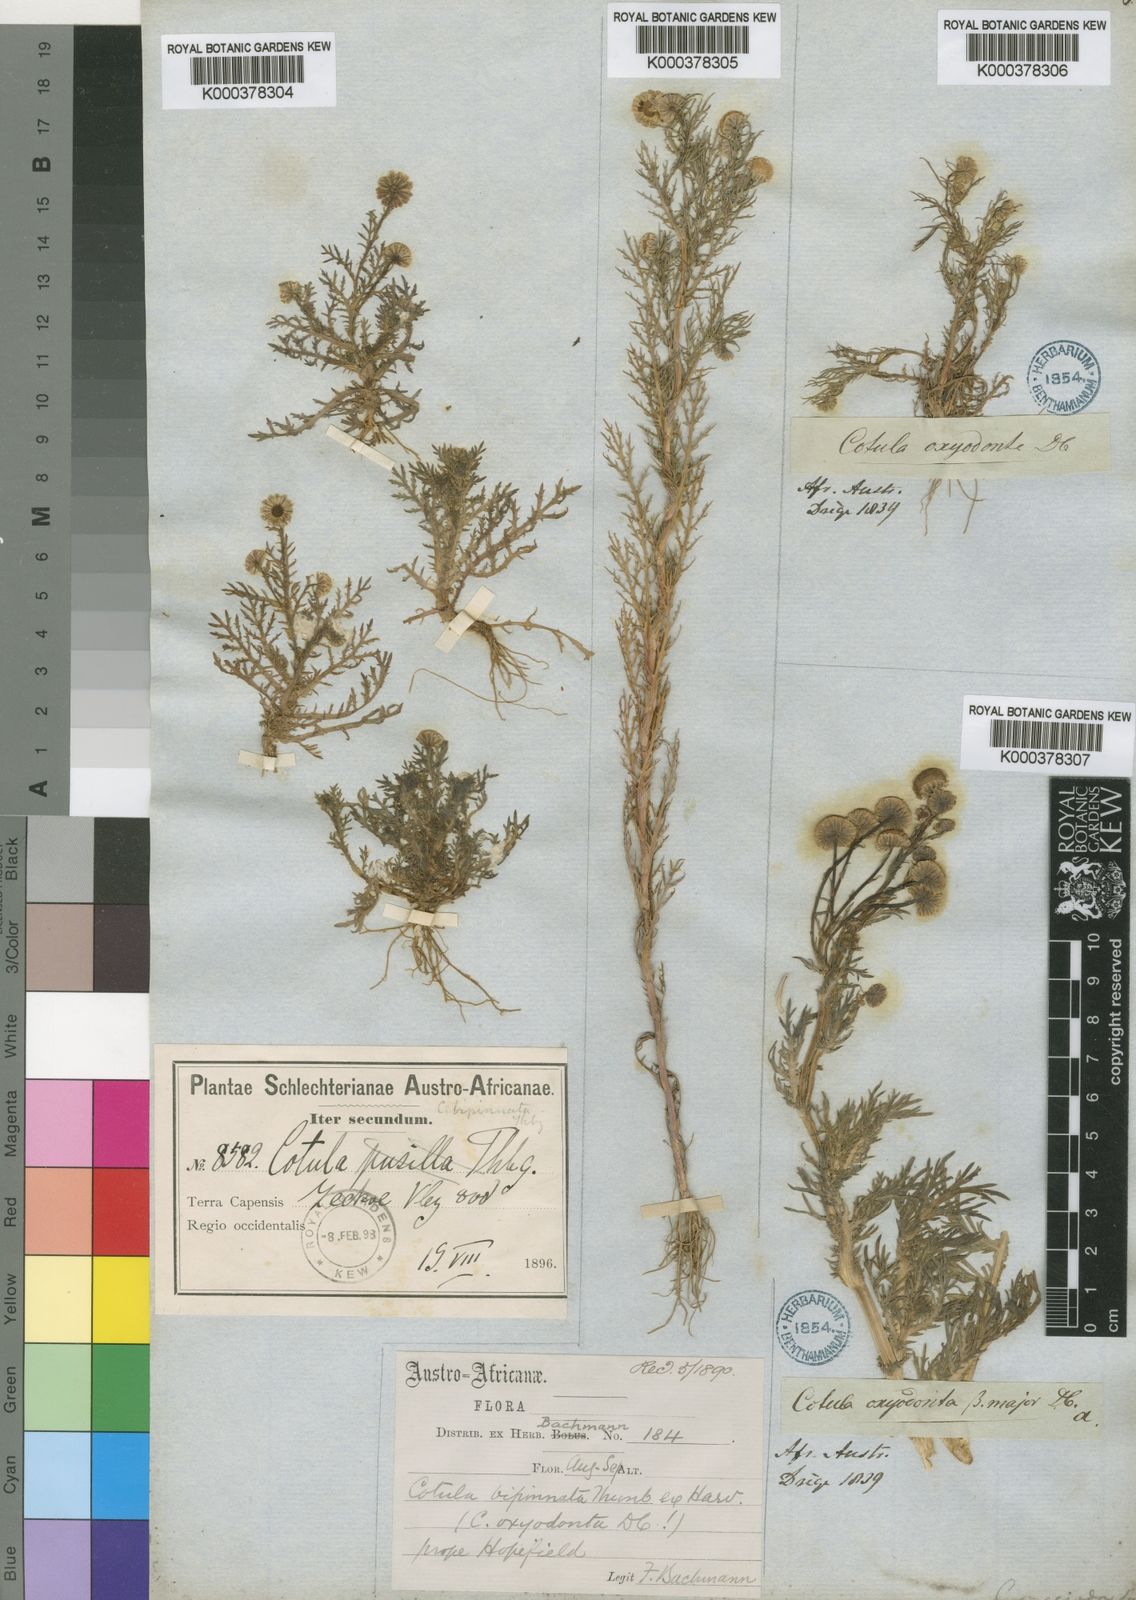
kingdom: Plantae
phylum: Tracheophyta
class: Magnoliopsida
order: Asterales
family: Asteraceae
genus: Cotula
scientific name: Cotula bipinnata
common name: Ferny buttonweed
